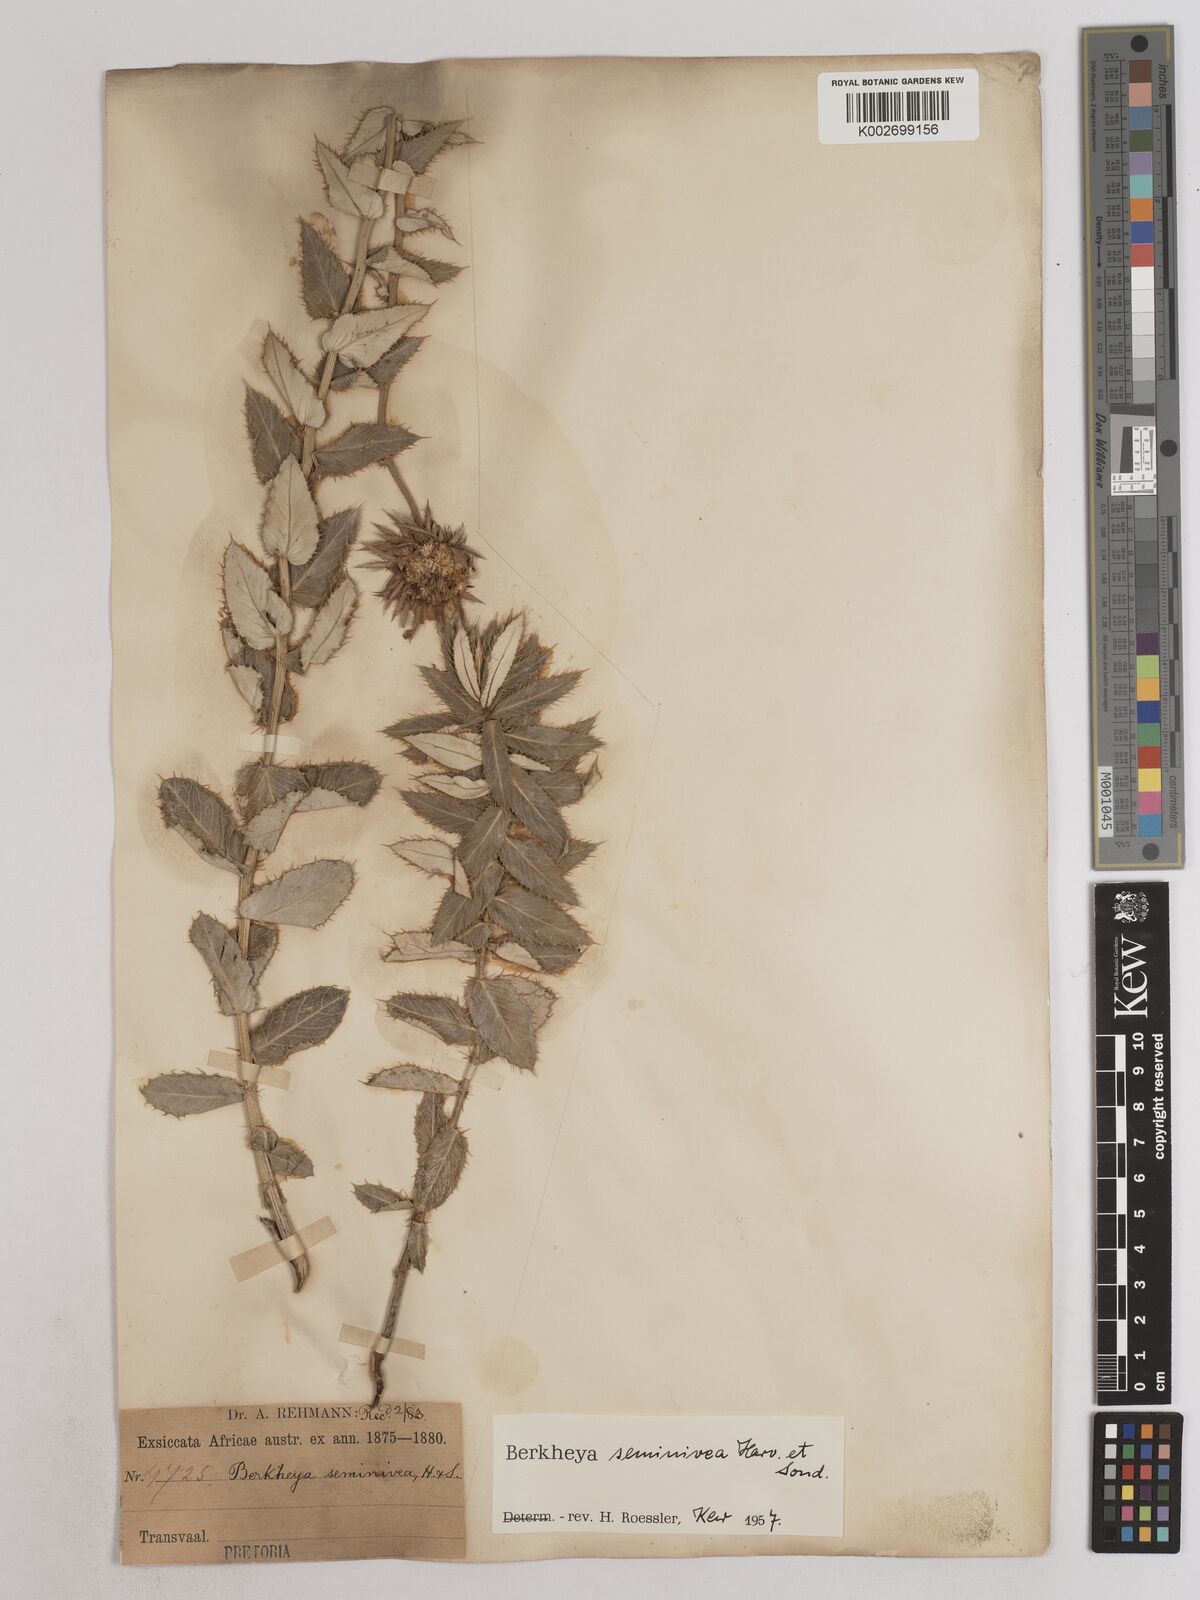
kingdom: Plantae
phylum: Tracheophyta
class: Magnoliopsida
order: Asterales
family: Asteraceae
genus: Berkheya
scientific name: Berkheya seminivea
